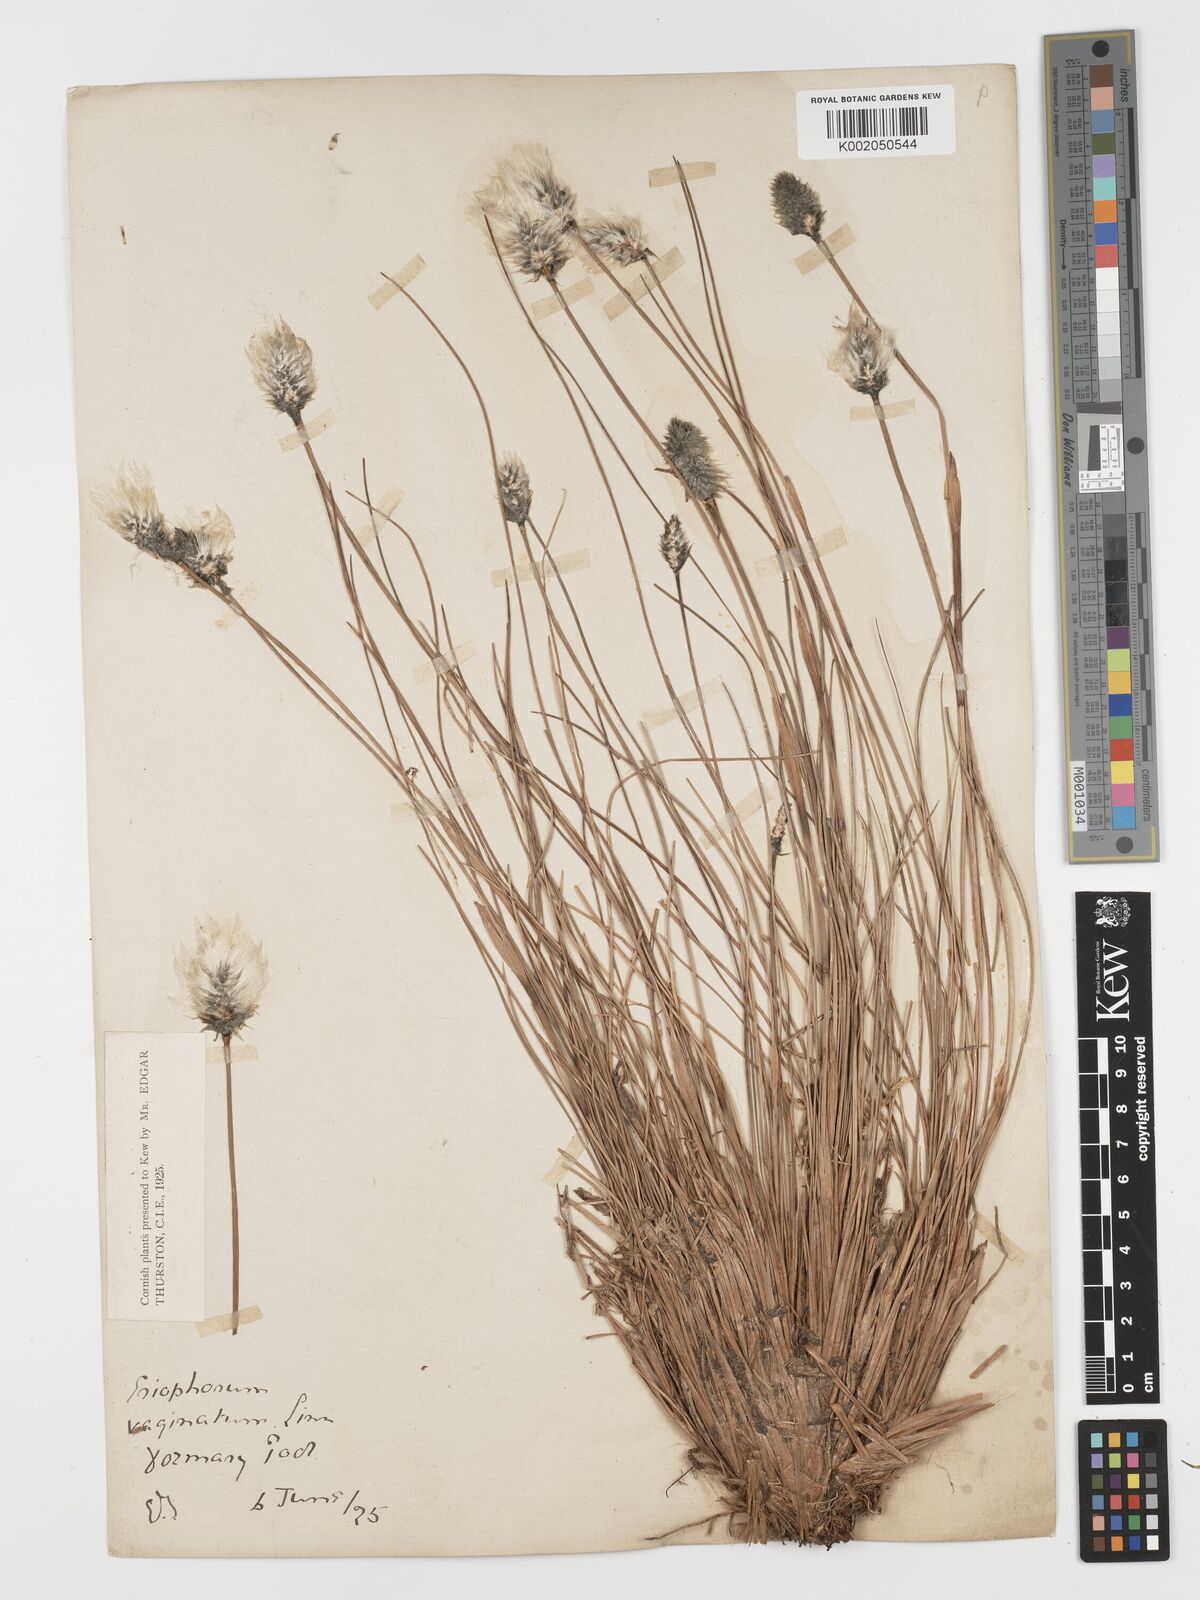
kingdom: Plantae
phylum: Tracheophyta
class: Liliopsida
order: Poales
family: Cyperaceae
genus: Eriophorum
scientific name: Eriophorum vaginatum
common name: Hare's-tail cottongrass
